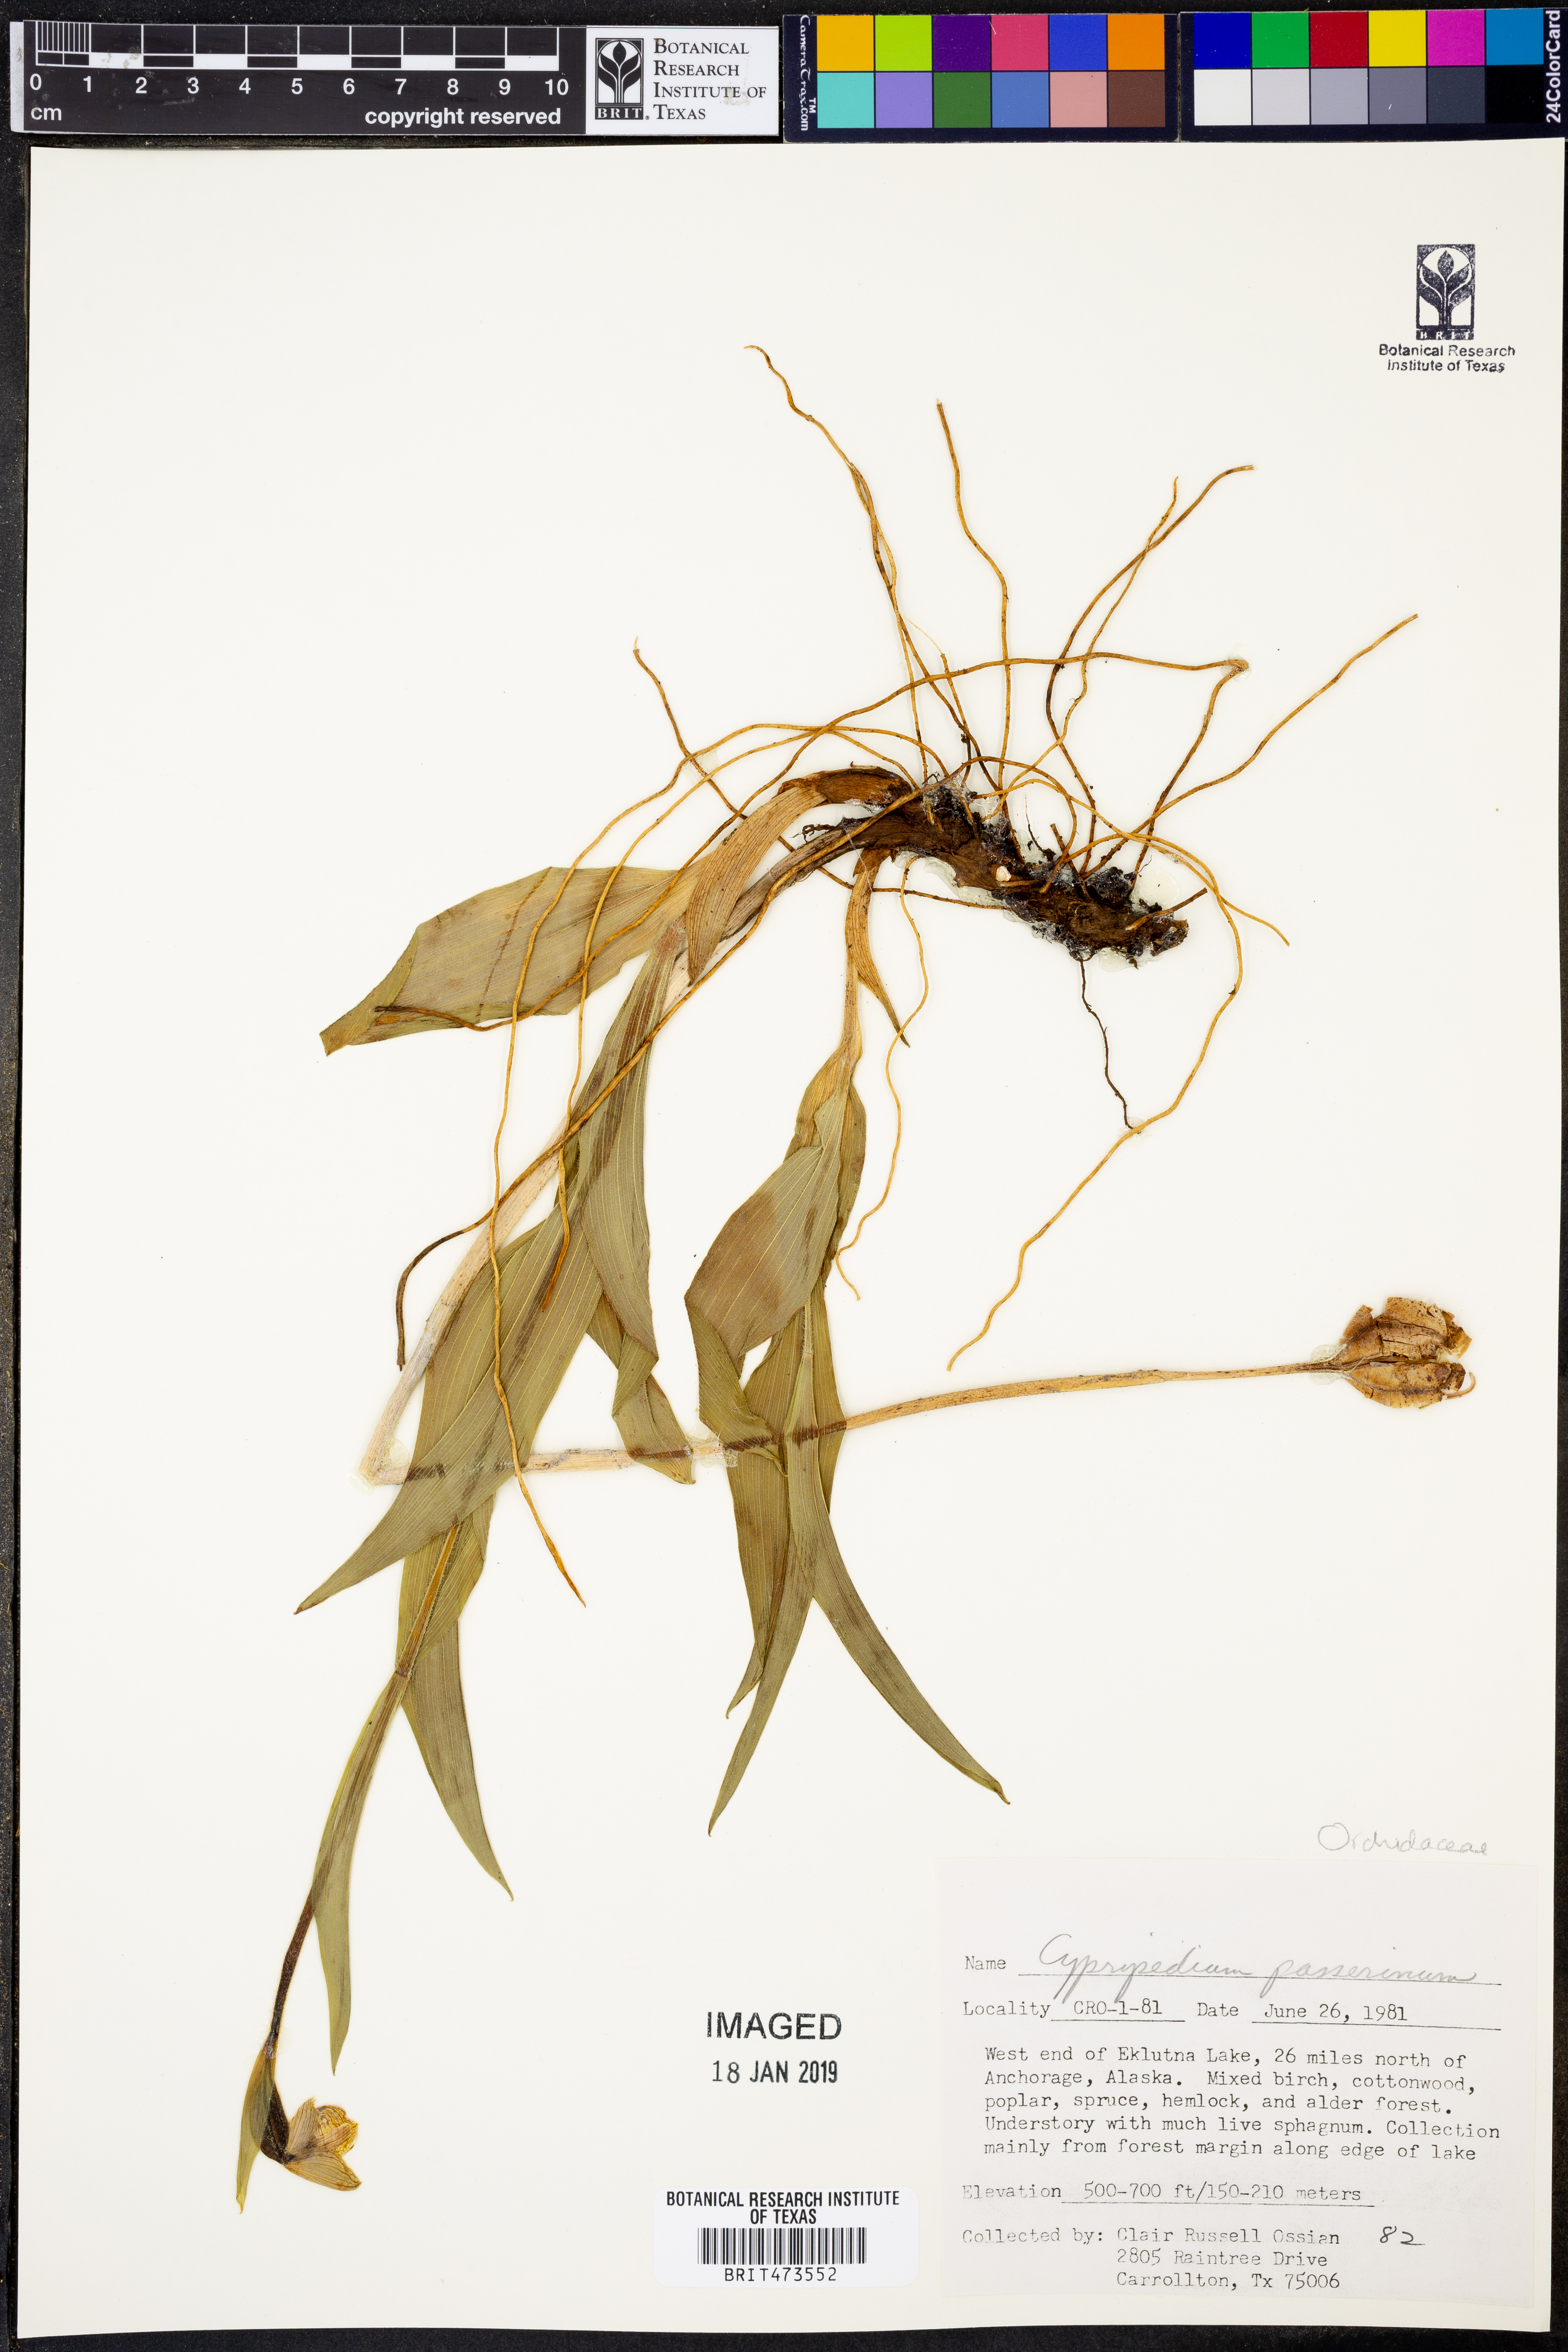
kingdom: Plantae
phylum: Tracheophyta
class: Liliopsida
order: Asparagales
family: Orchidaceae
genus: Cypripedium
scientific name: Cypripedium passerinum
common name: Sparrow's-egg lady's-slipper
